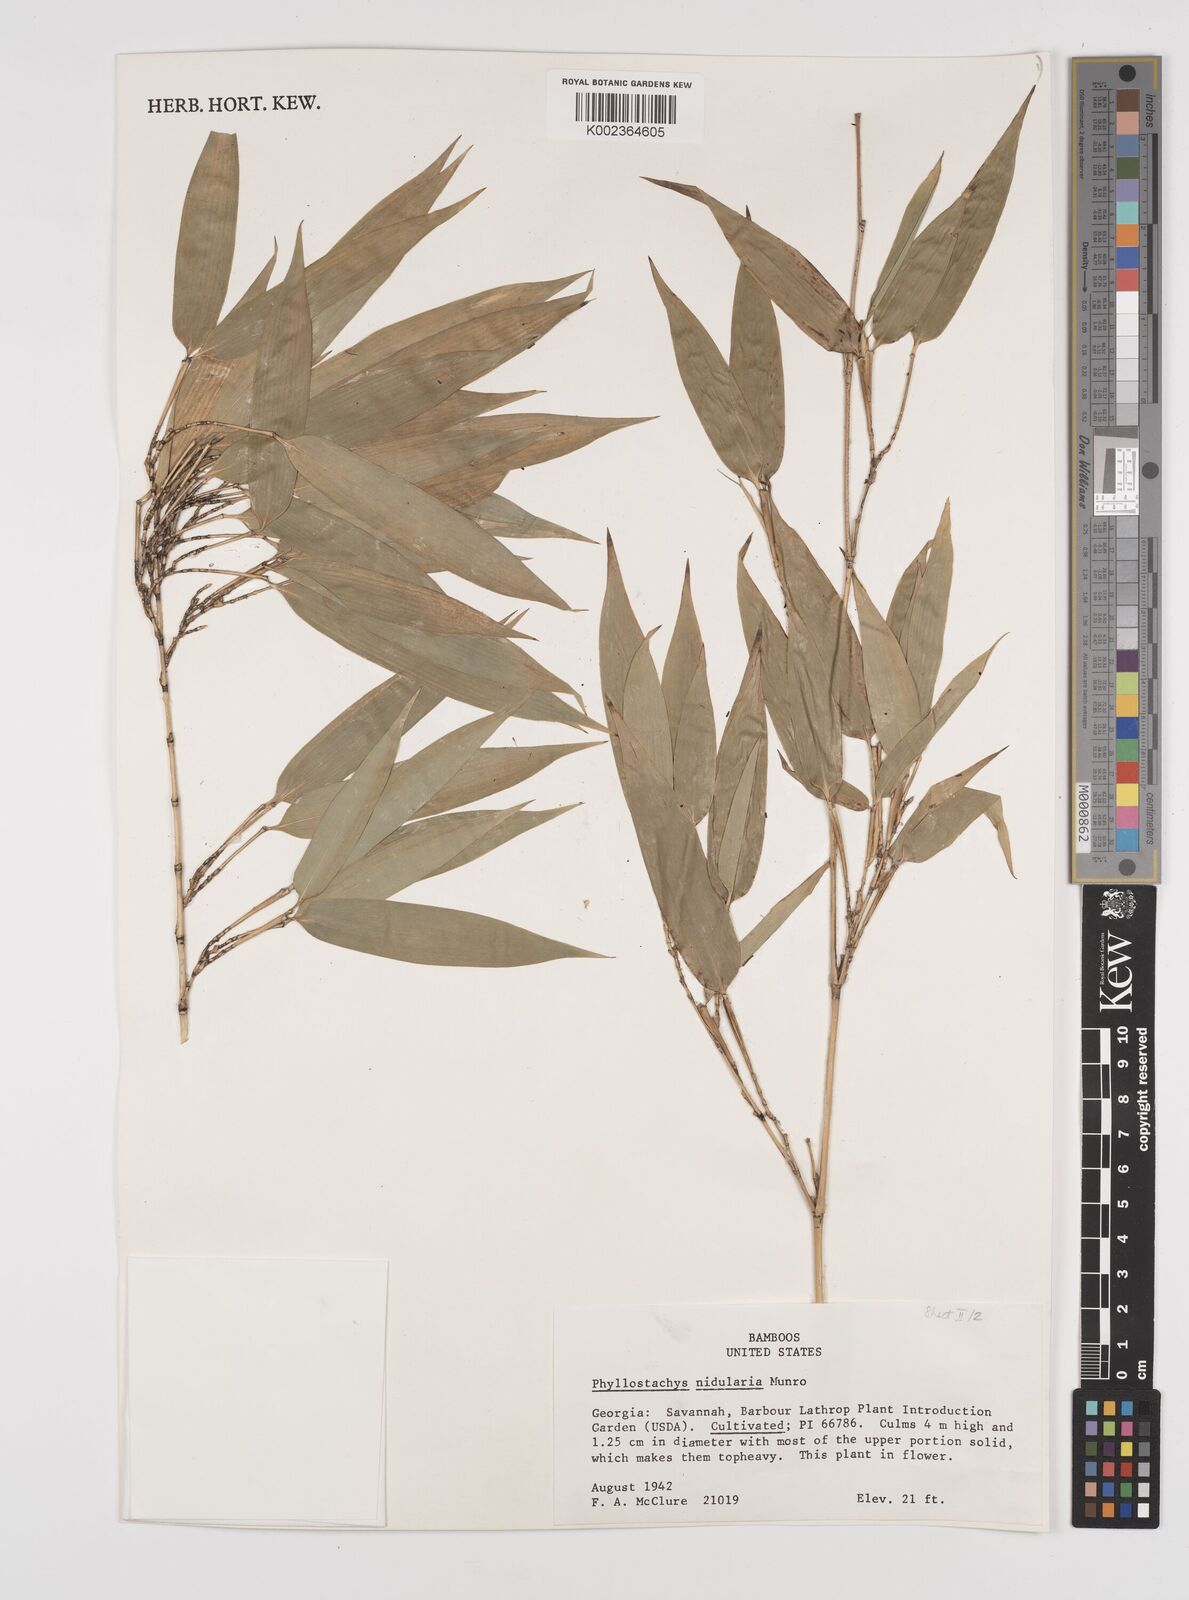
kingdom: Plantae
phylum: Tracheophyta
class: Liliopsida
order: Poales
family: Poaceae
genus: Phyllostachys
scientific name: Phyllostachys nidularia
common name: Broom bamboo
